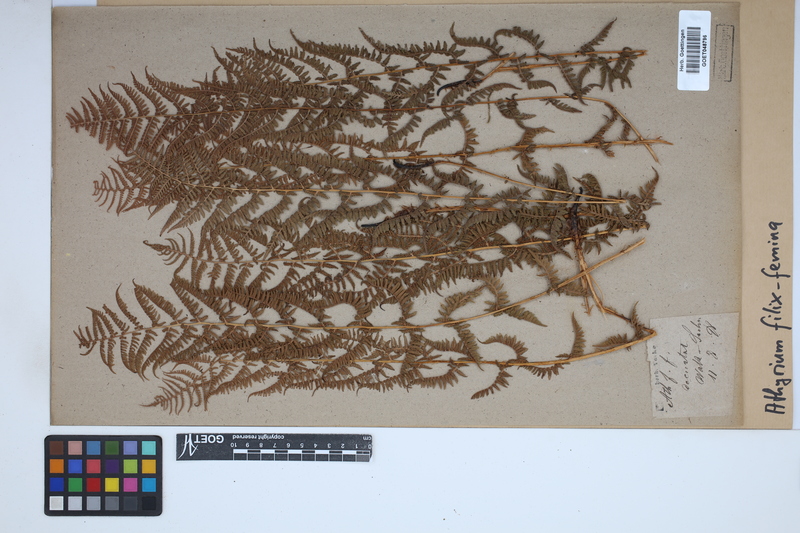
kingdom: Plantae
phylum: Tracheophyta
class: Polypodiopsida
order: Polypodiales
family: Athyriaceae
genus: Athyrium
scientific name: Athyrium filix-femina
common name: Lady fern
